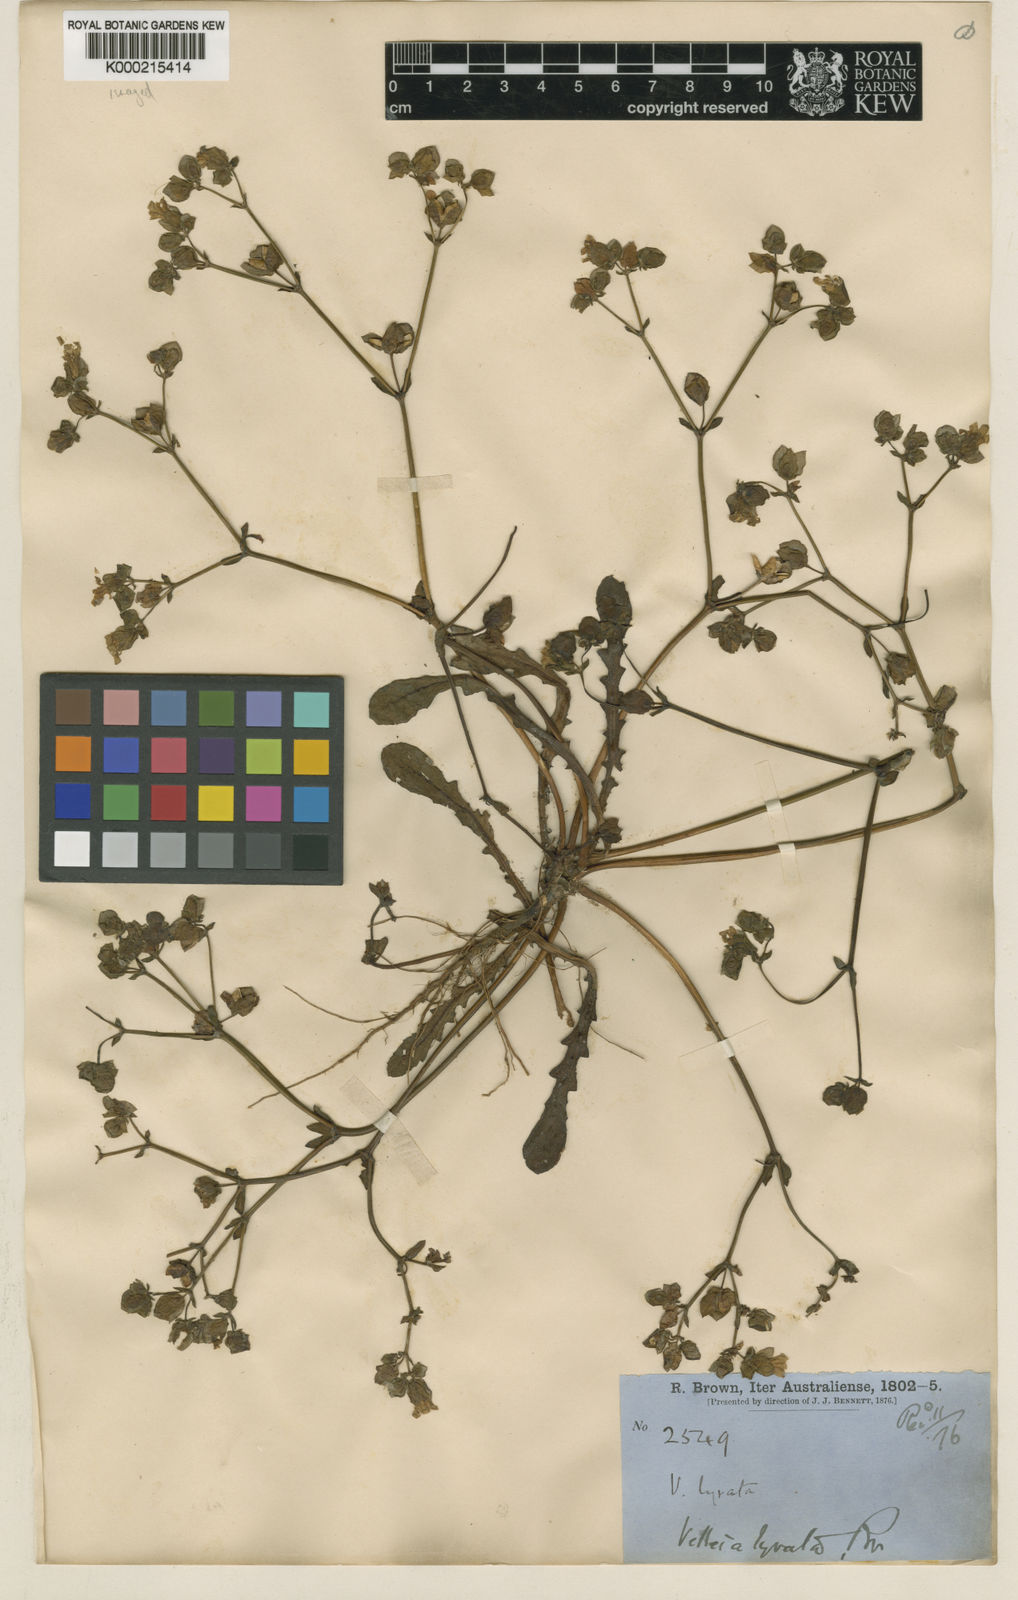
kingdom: Plantae
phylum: Tracheophyta
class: Magnoliopsida
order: Asterales
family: Goodeniaceae
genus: Goodenia
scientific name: Goodenia caroliniana
